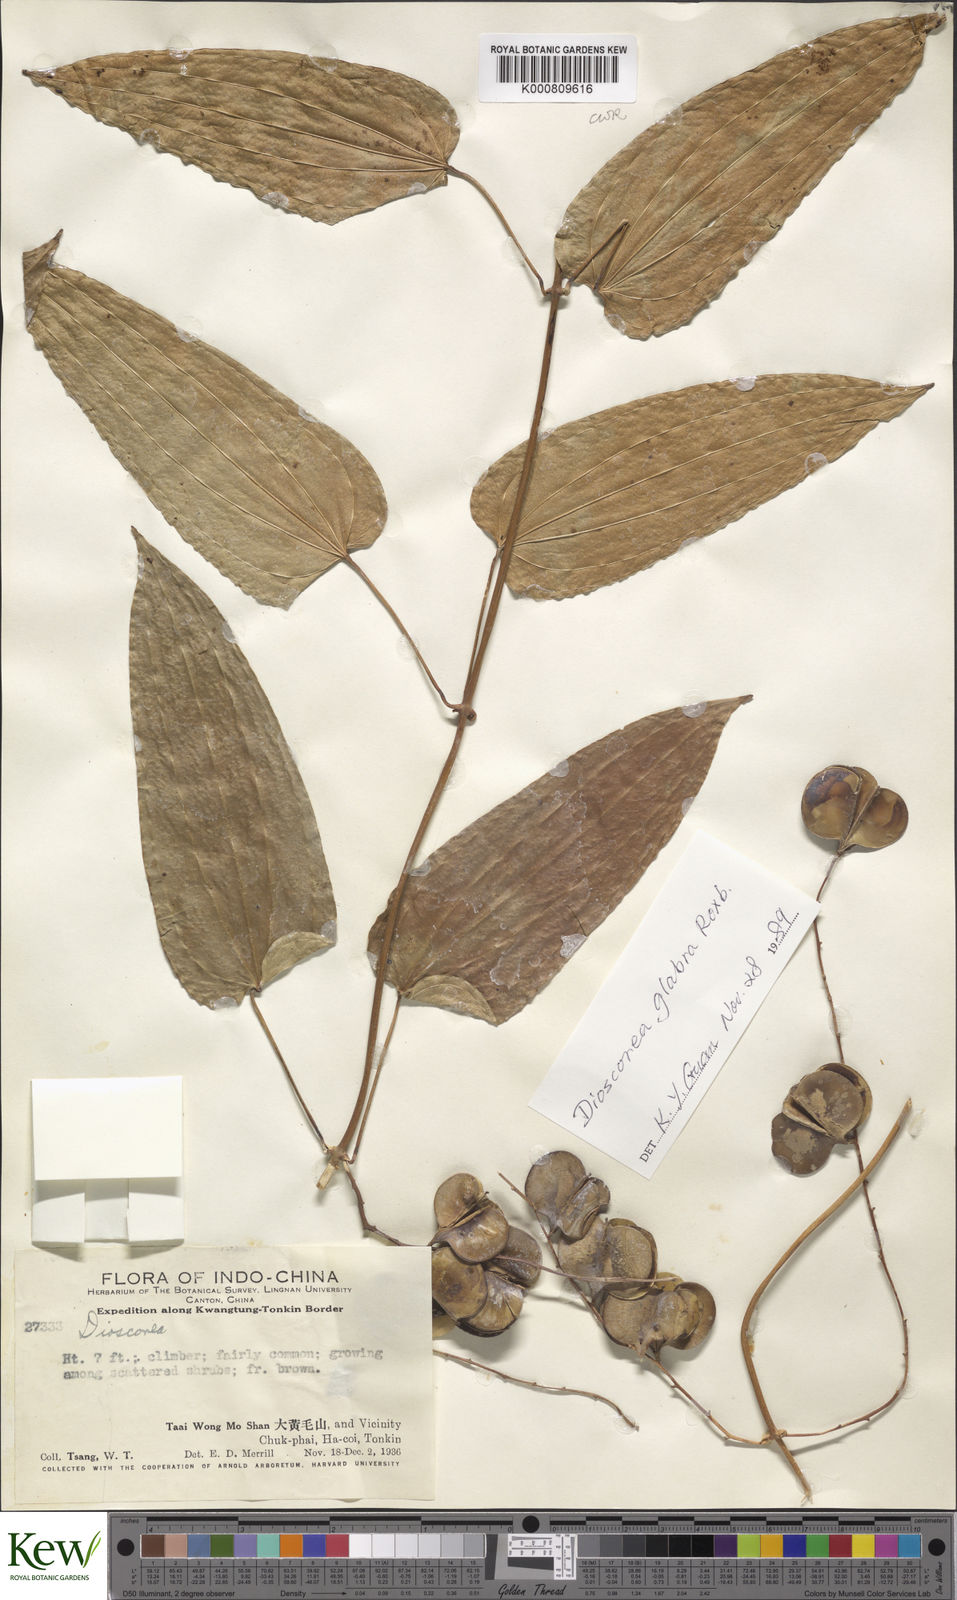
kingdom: Plantae
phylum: Tracheophyta
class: Liliopsida
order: Dioscoreales
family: Dioscoreaceae
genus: Dioscorea
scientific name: Dioscorea glabra
